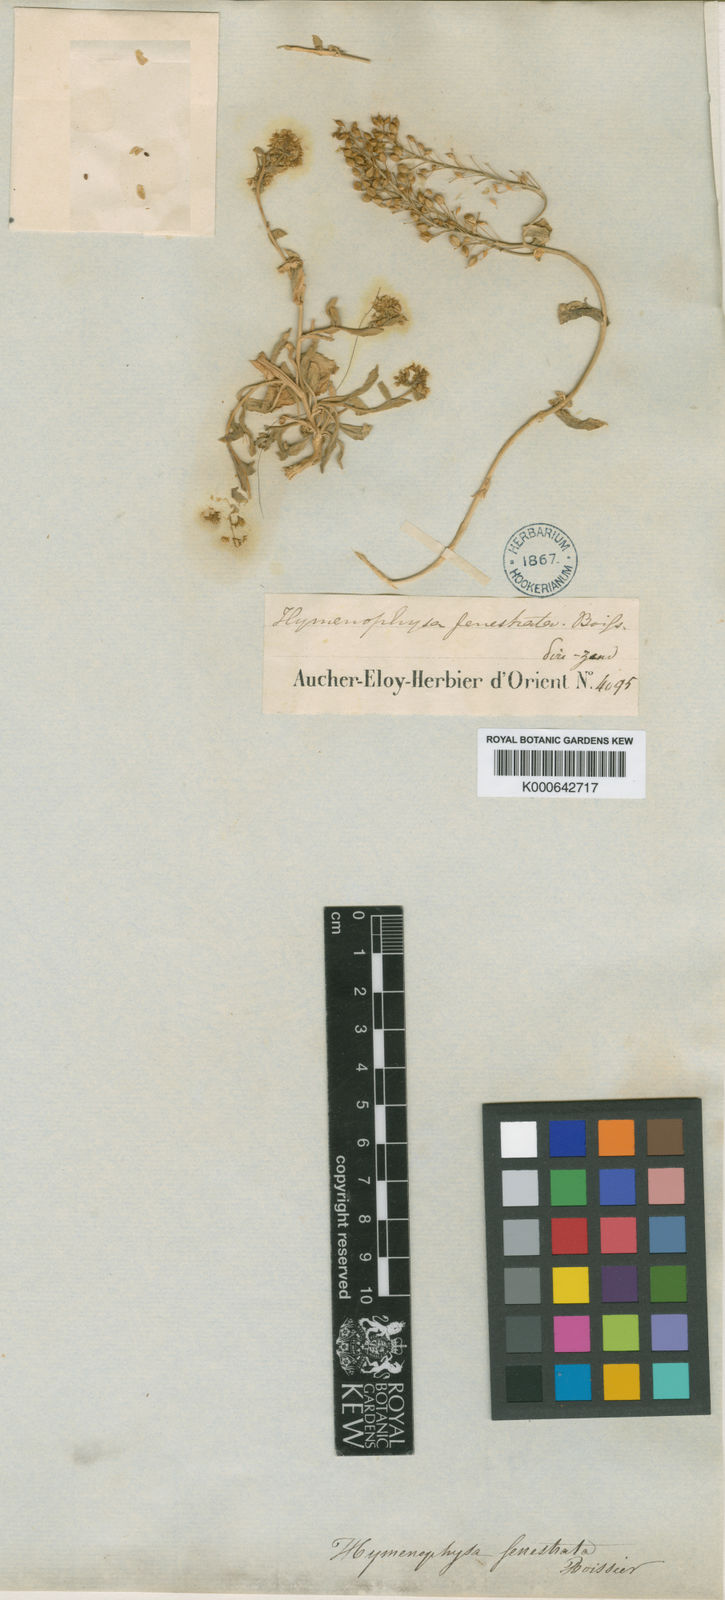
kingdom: Plantae
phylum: Tracheophyta
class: Magnoliopsida
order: Brassicales
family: Brassicaceae
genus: Lepidium
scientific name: Lepidium desertorum
